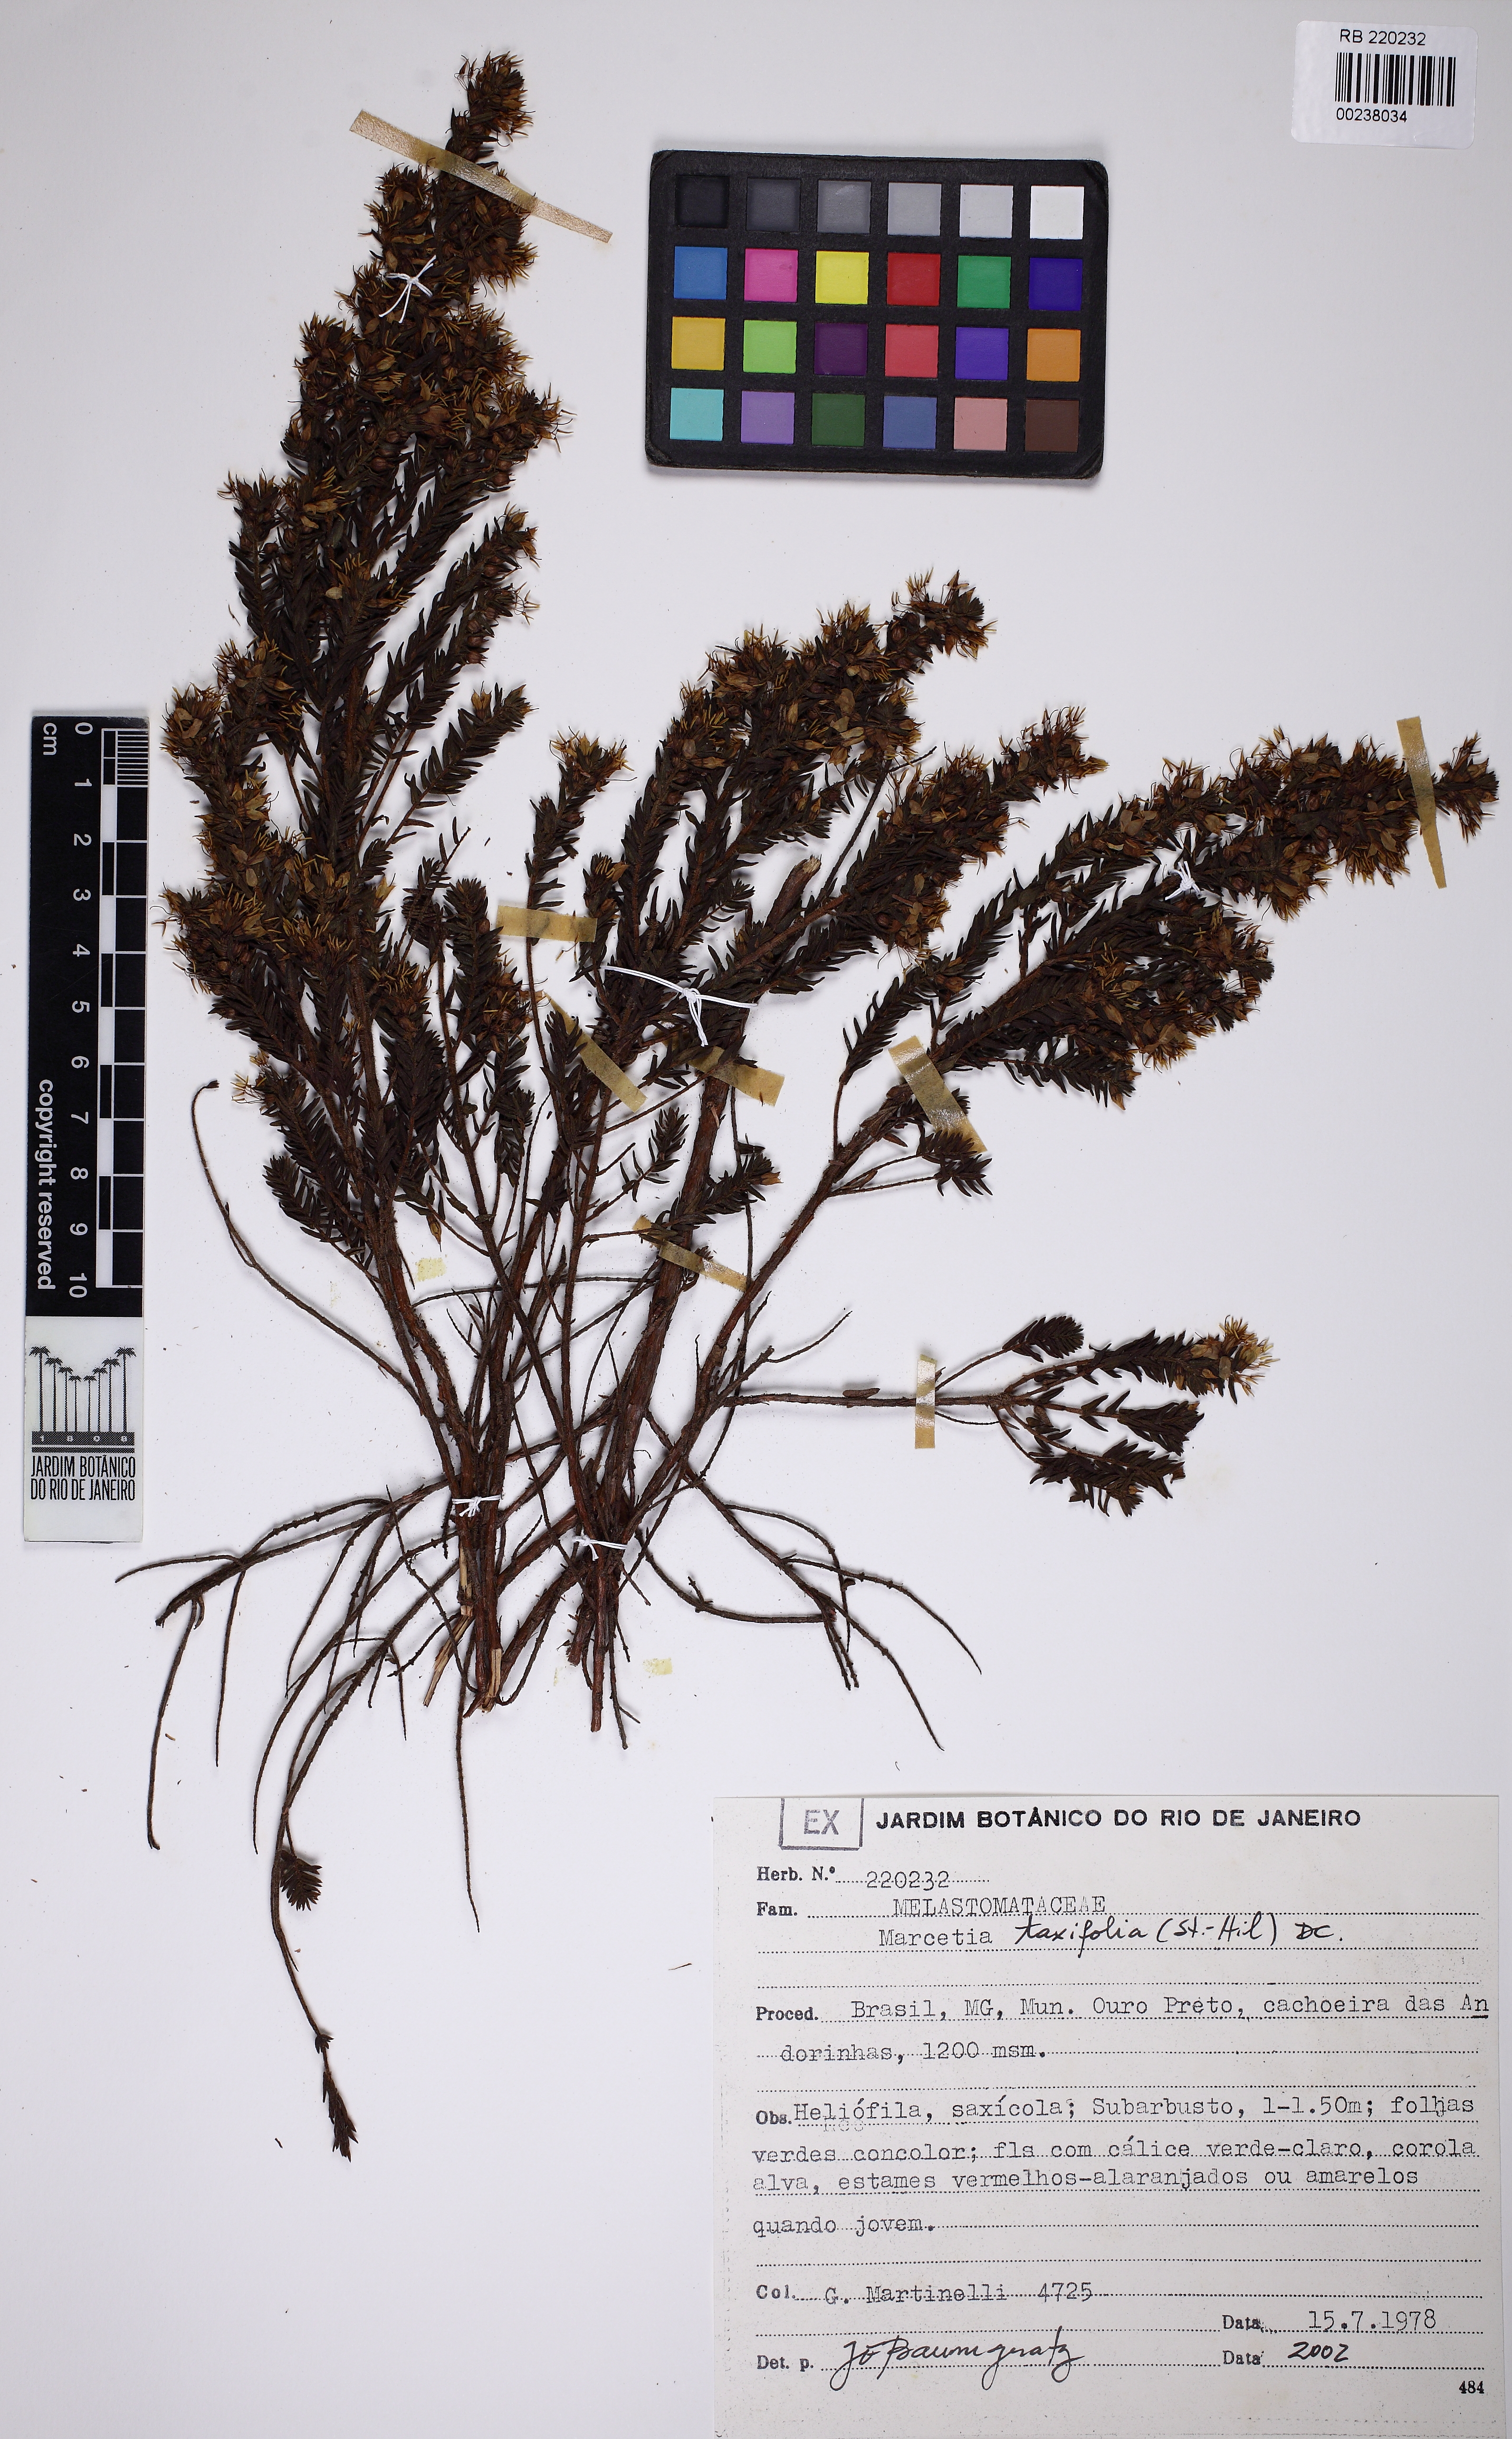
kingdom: Plantae
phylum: Tracheophyta
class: Magnoliopsida
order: Myrtales
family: Melastomataceae
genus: Marcetia
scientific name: Marcetia taxifolia
